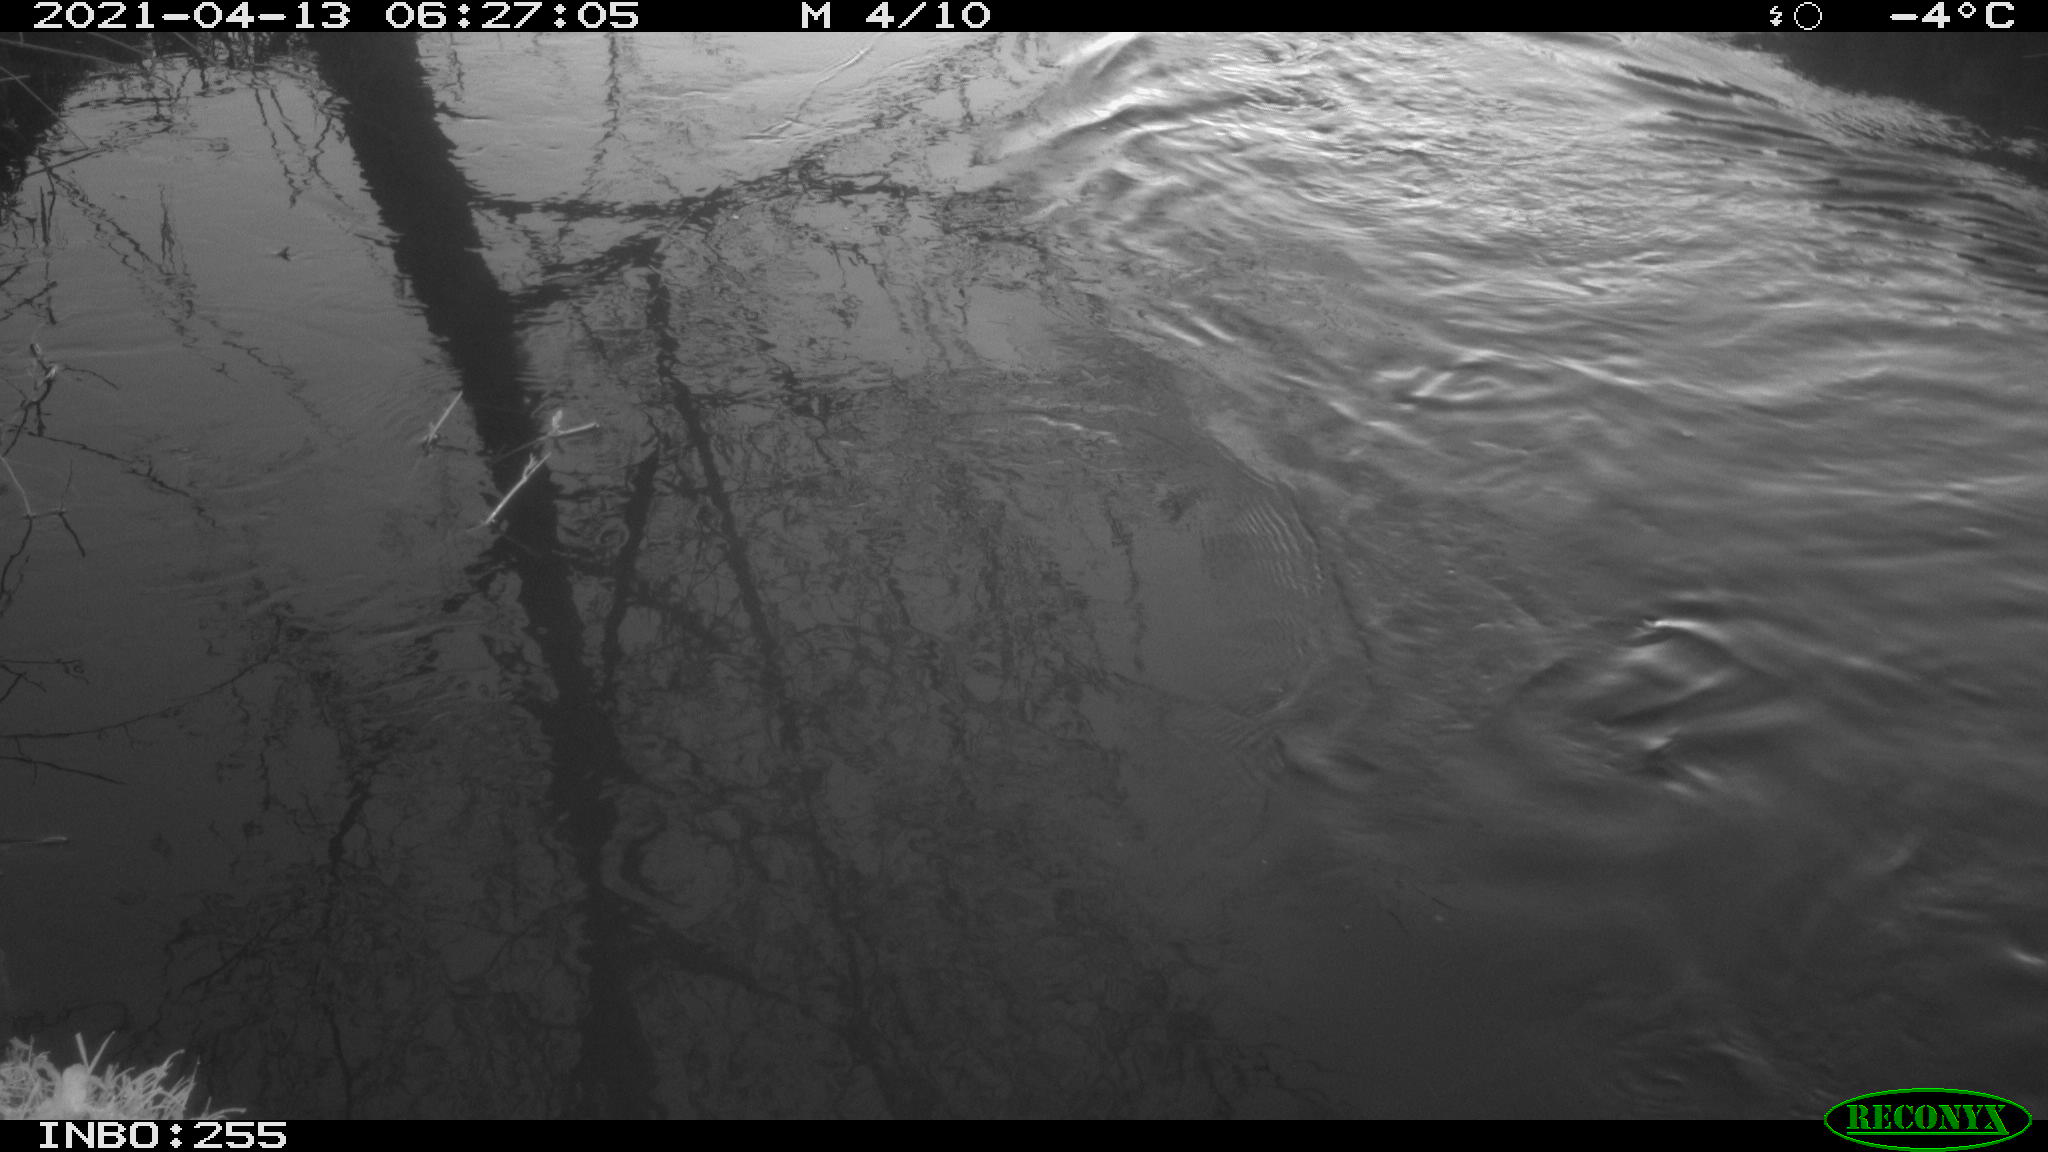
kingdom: Animalia
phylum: Chordata
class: Aves
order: Anseriformes
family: Anatidae
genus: Anas
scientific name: Anas platyrhynchos
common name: Mallard
